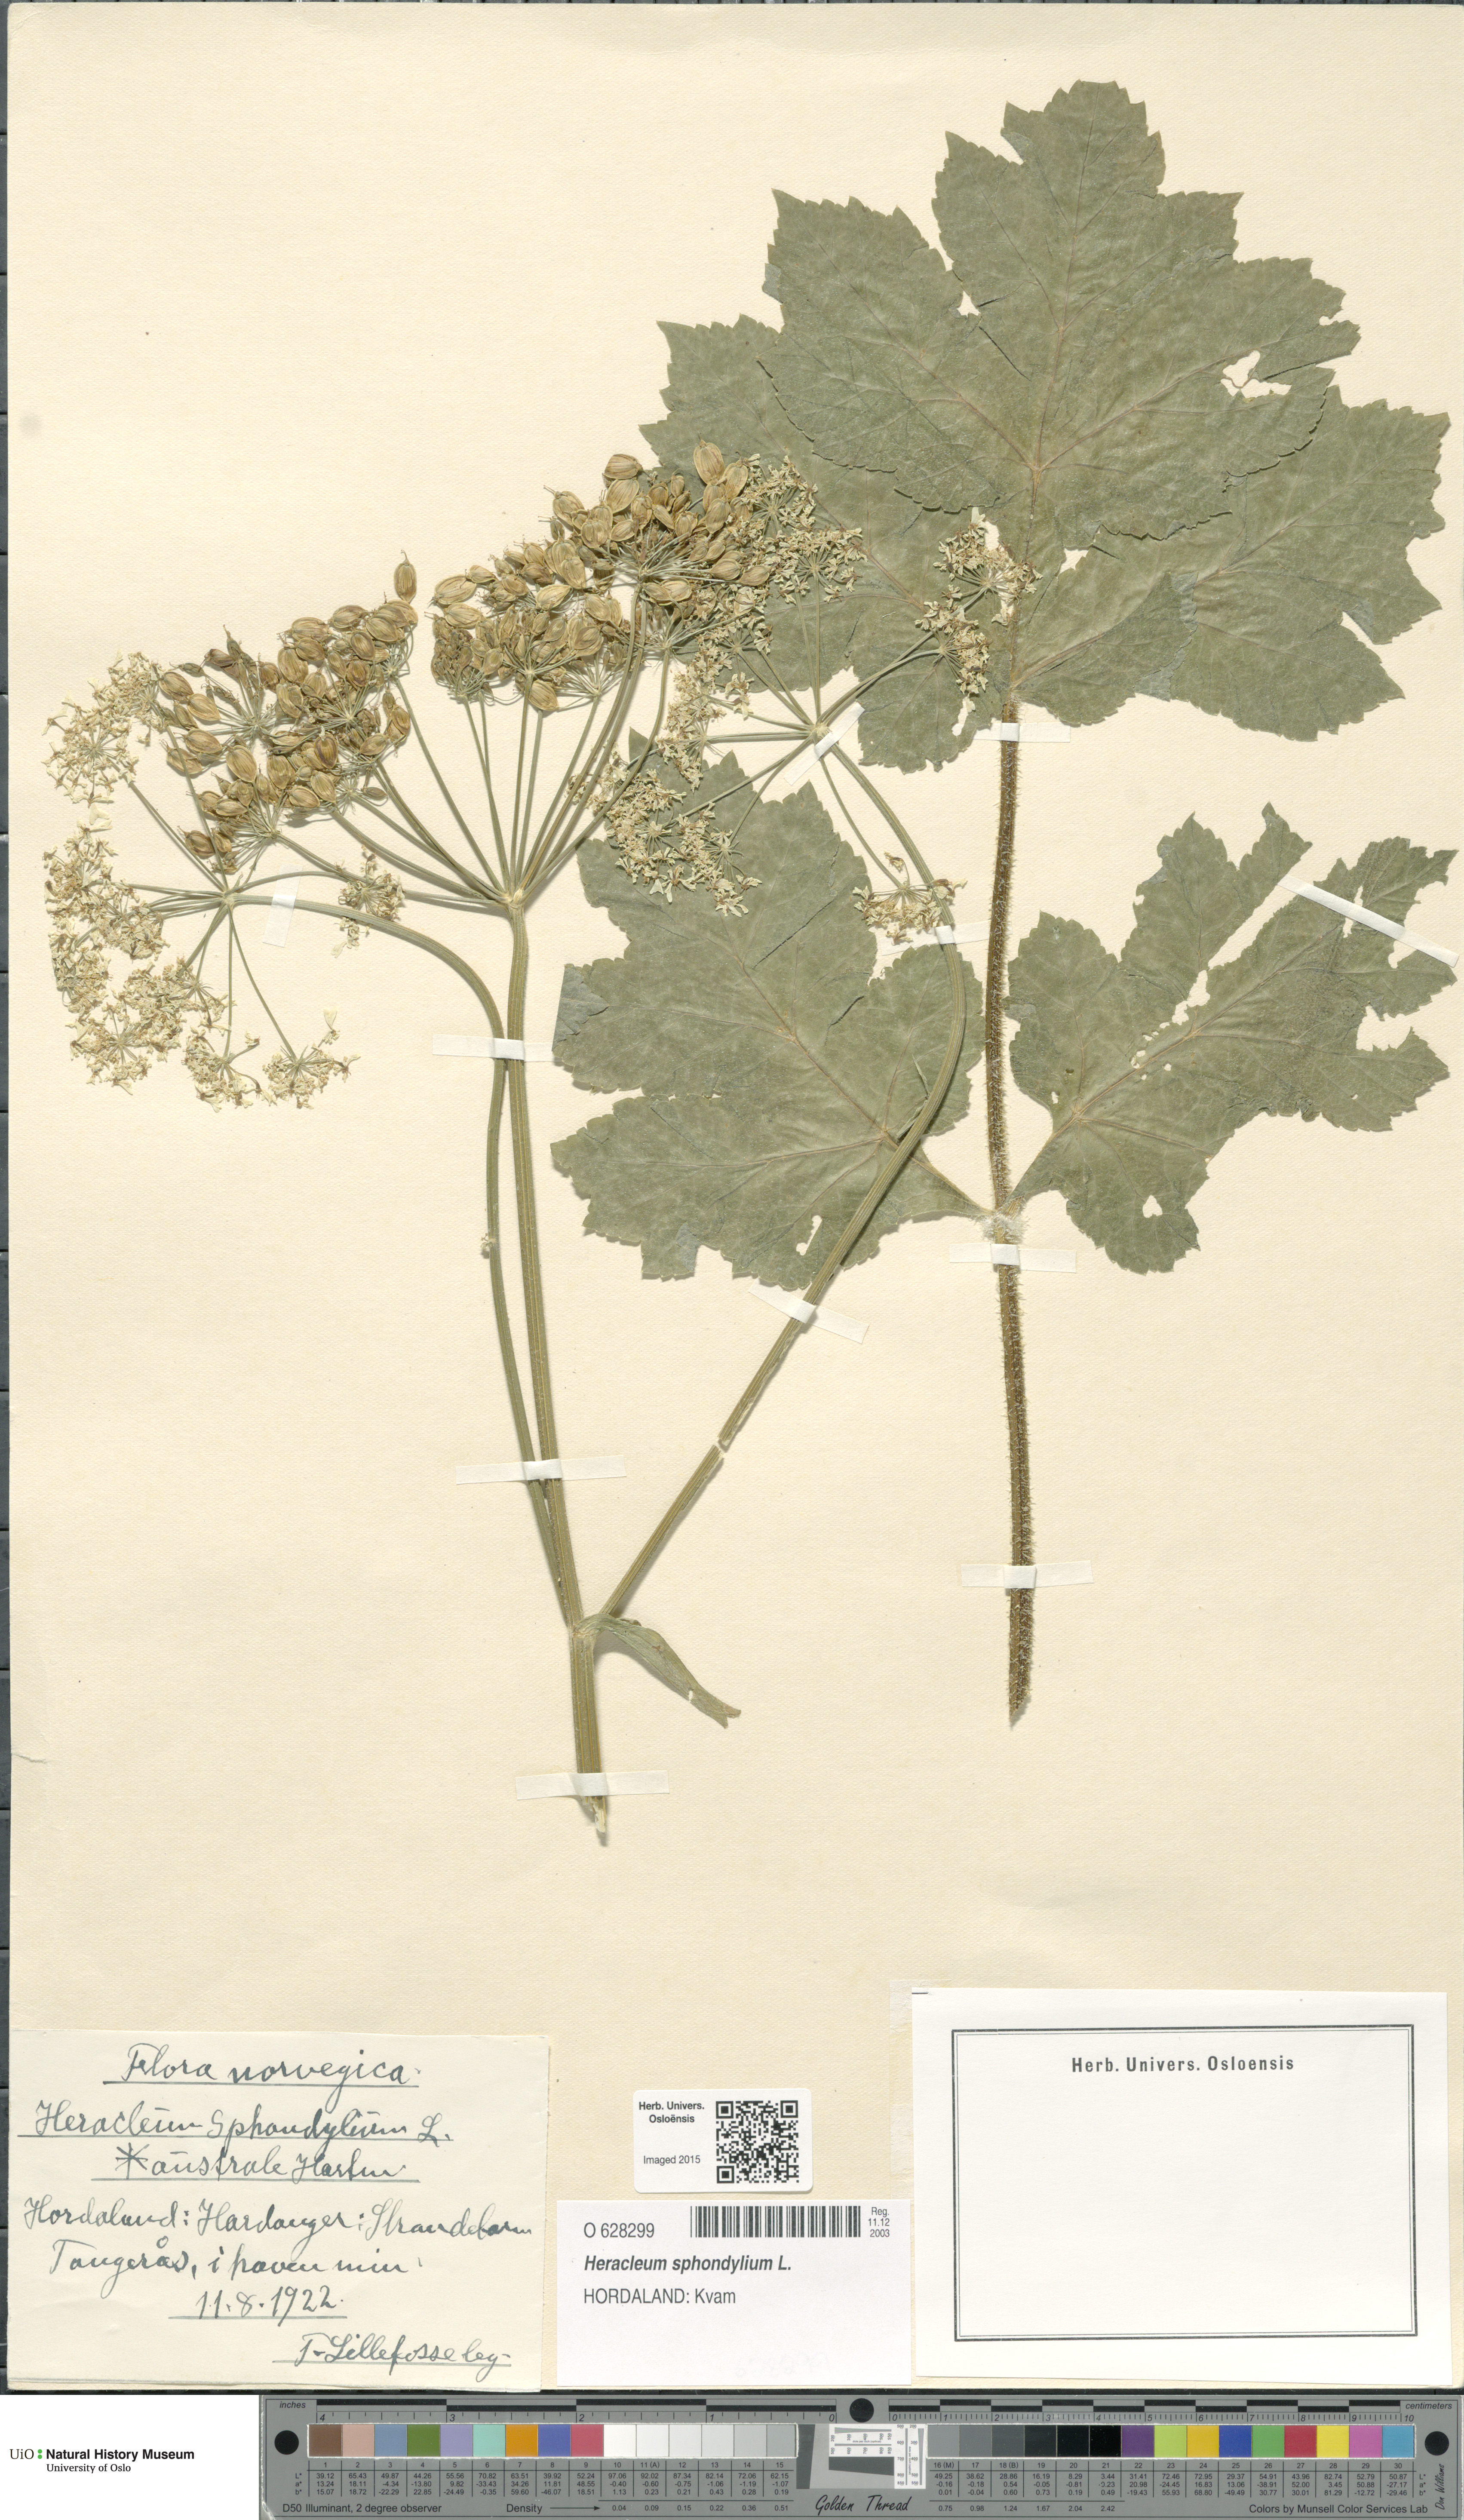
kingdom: Plantae
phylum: Tracheophyta
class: Magnoliopsida
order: Apiales
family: Apiaceae
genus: Heracleum
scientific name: Heracleum sphondylium
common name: Hogweed
